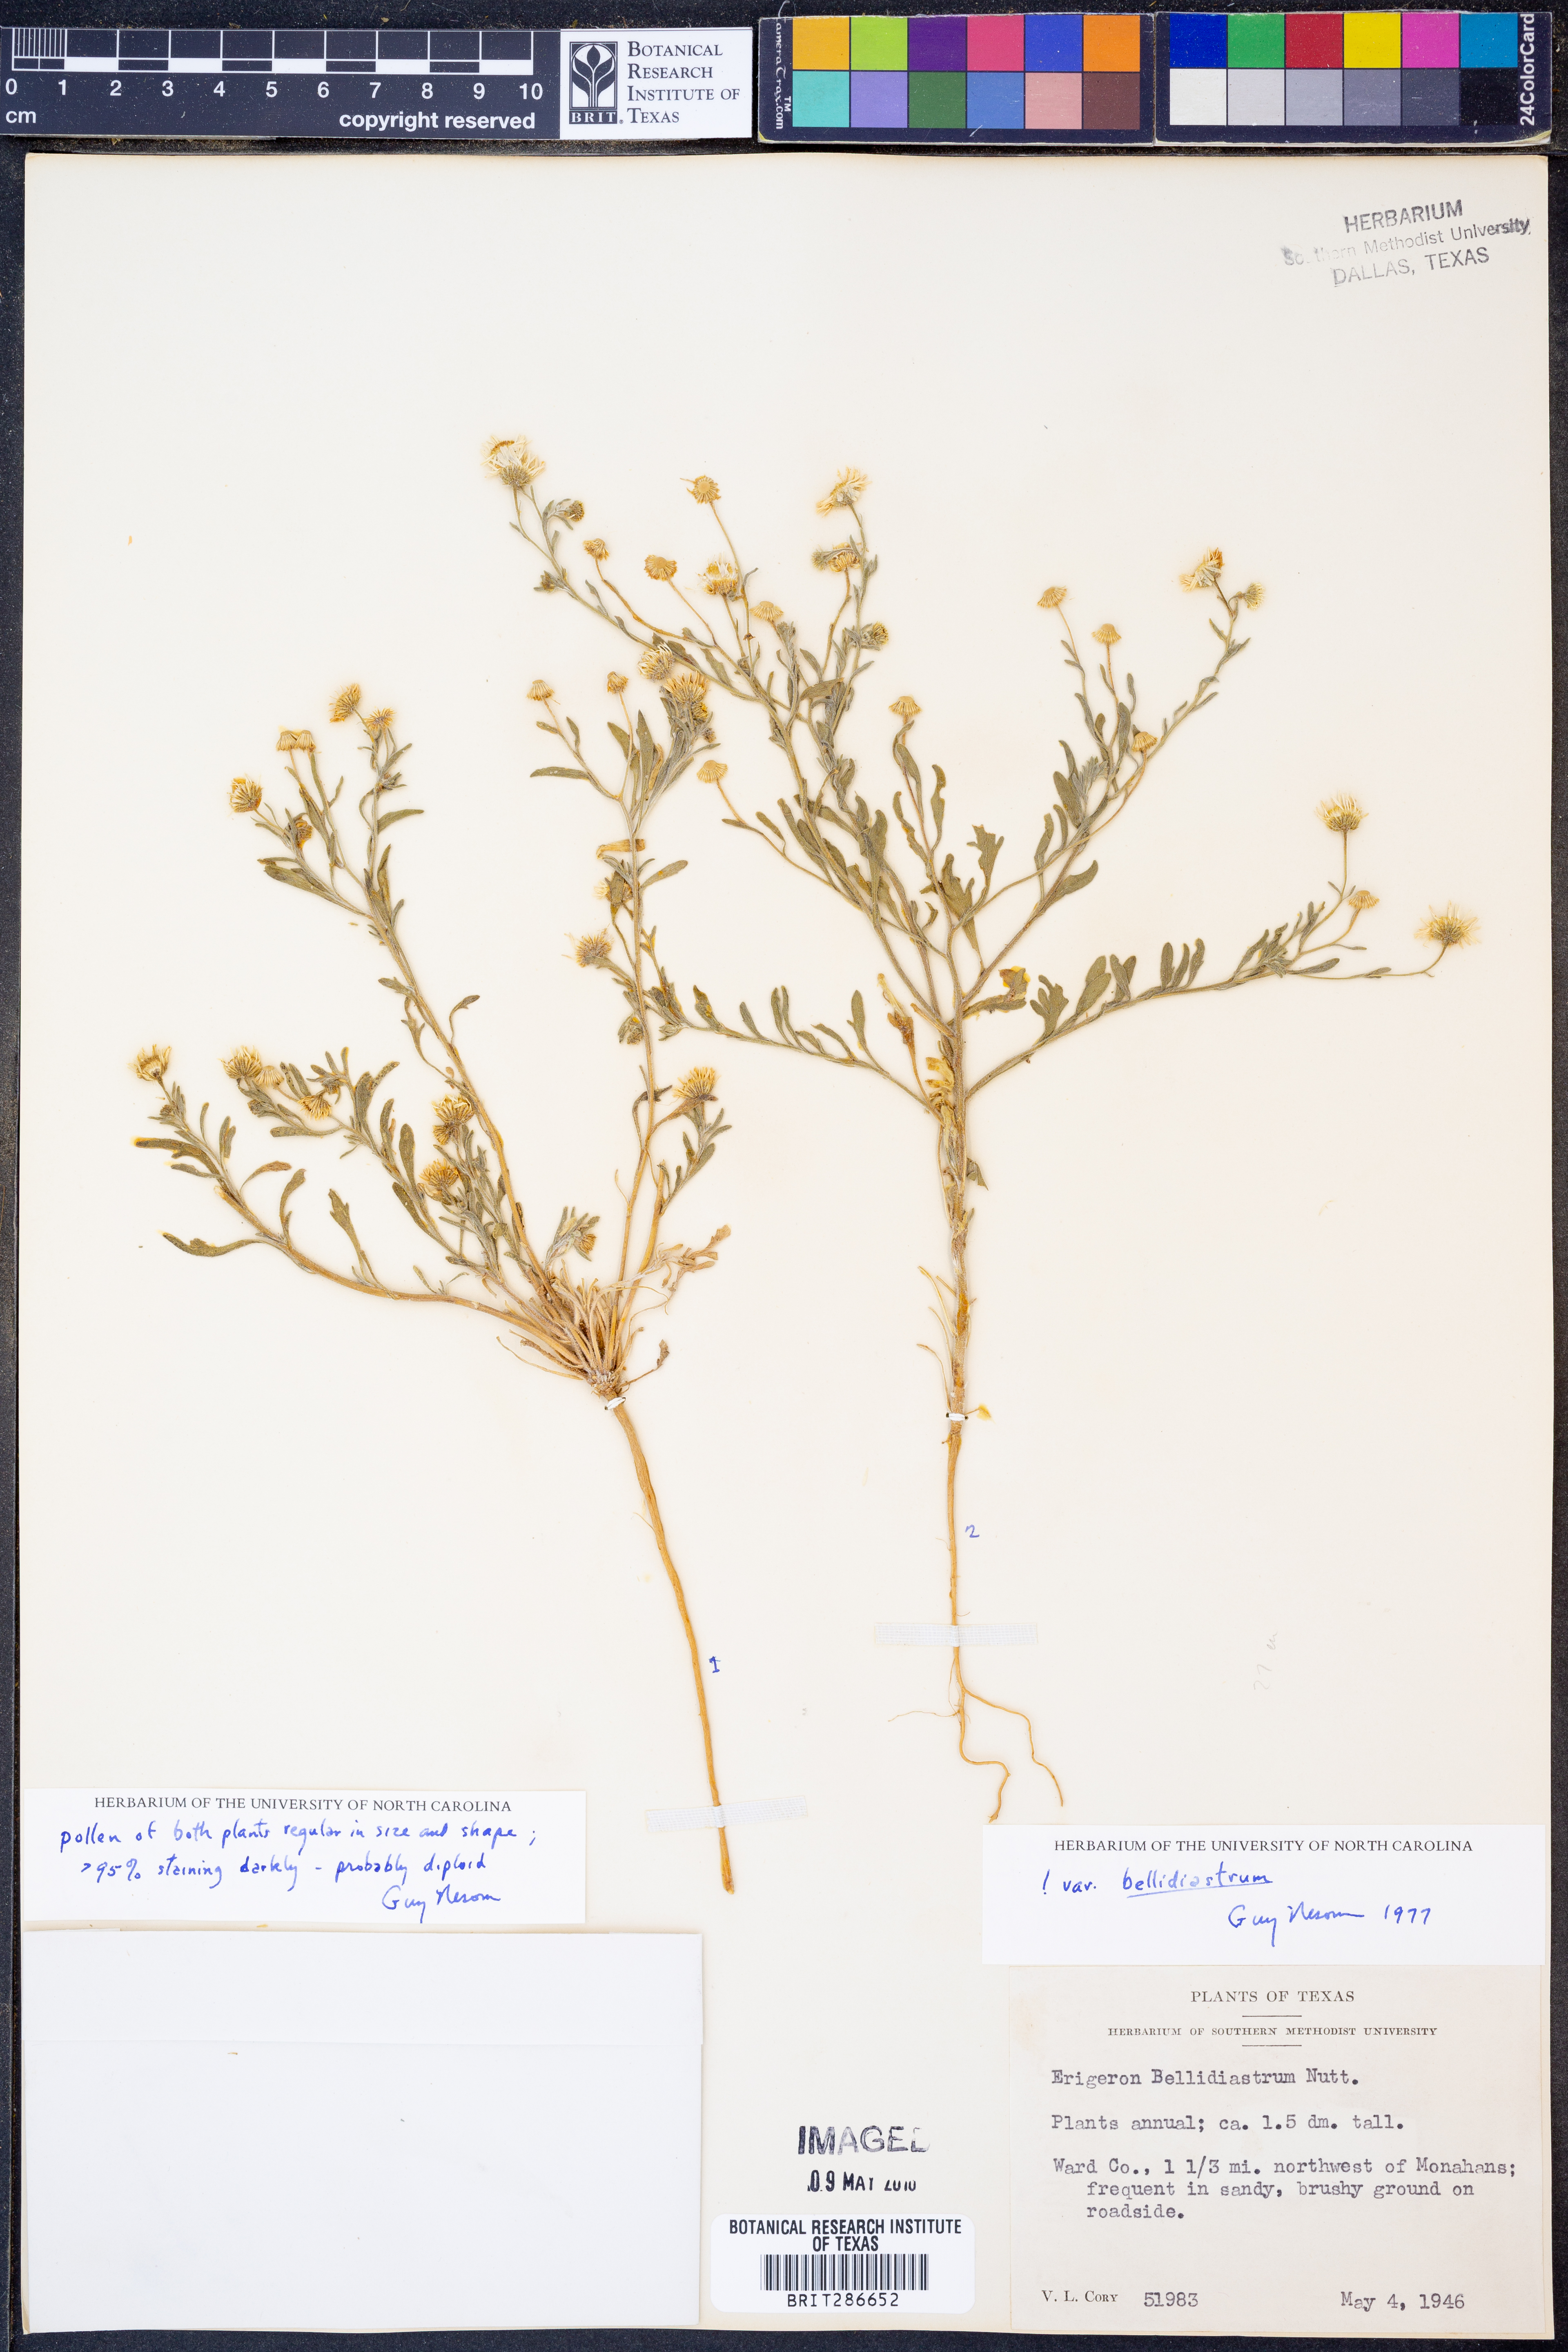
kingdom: Plantae
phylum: Tracheophyta
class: Magnoliopsida
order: Asterales
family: Asteraceae
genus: Erigeron
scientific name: Erigeron bellidiastrum
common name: Sand fleabane
